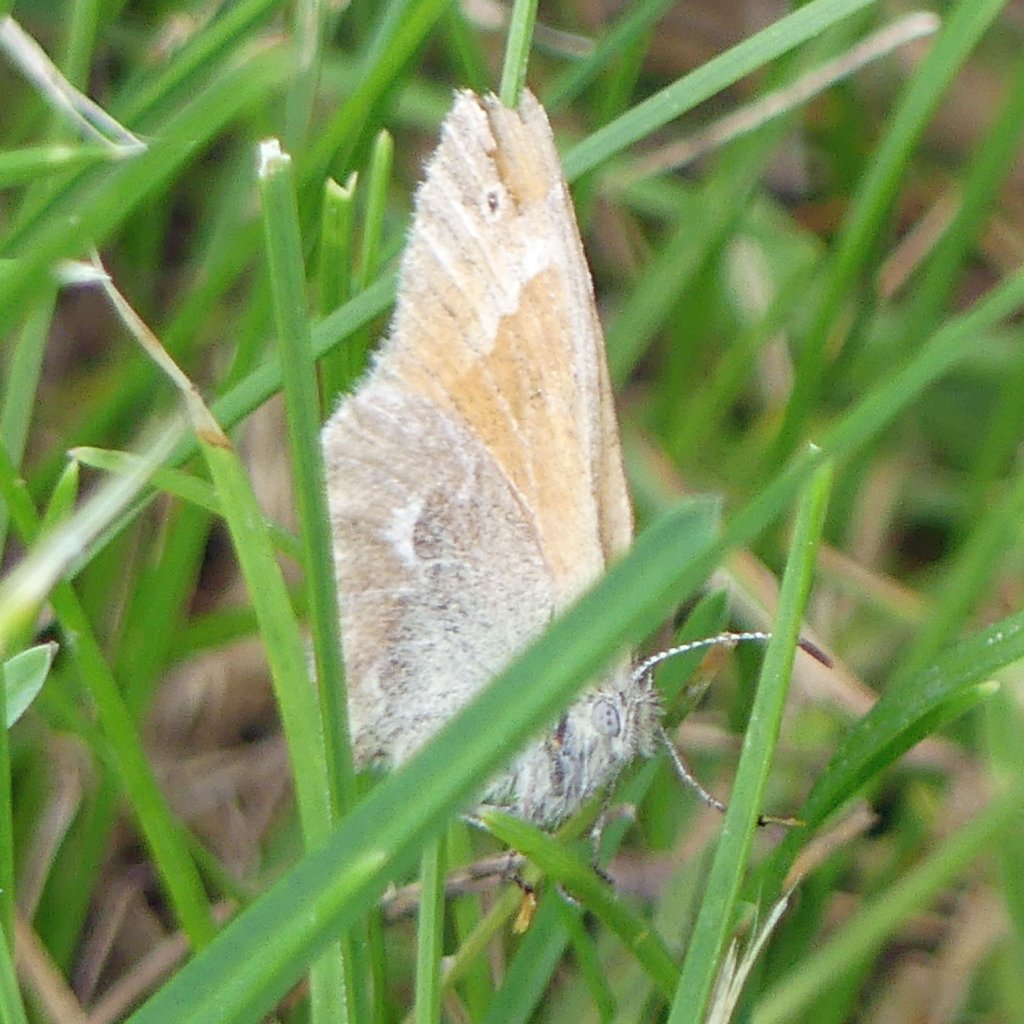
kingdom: Animalia
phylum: Arthropoda
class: Insecta
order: Lepidoptera
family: Nymphalidae
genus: Coenonympha
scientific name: Coenonympha tullia
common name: Large Heath
